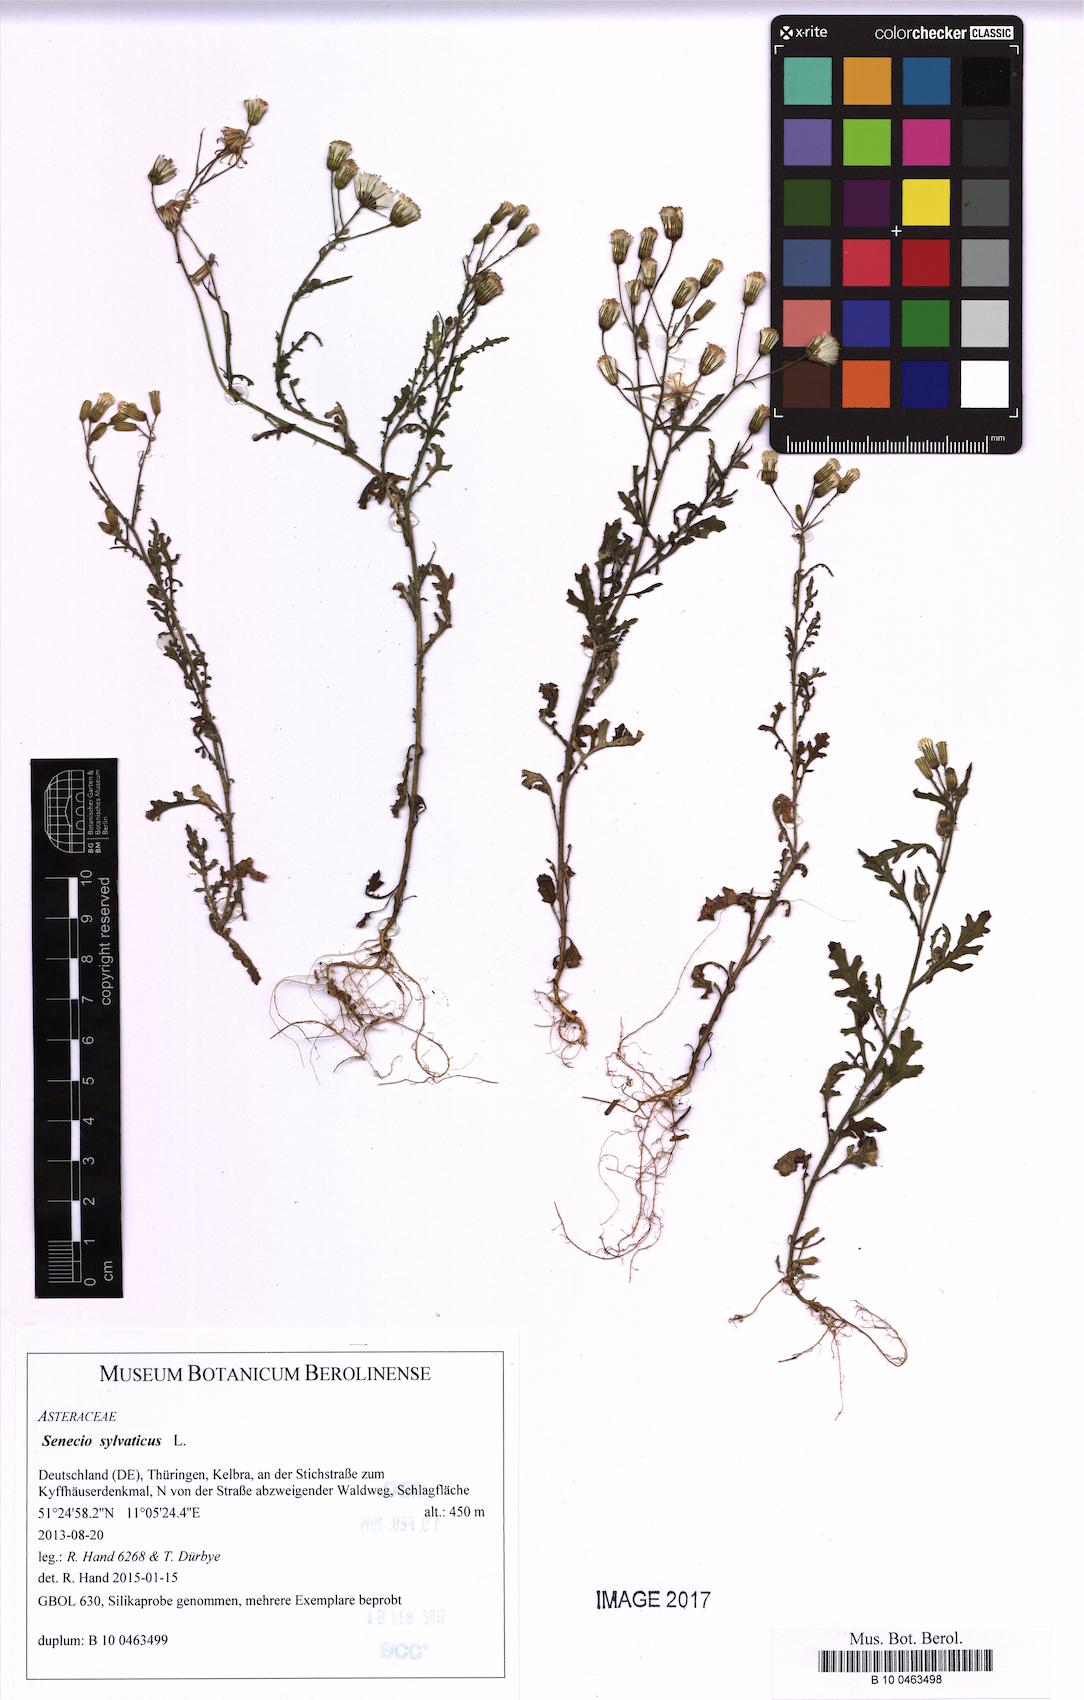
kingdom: Plantae
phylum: Tracheophyta
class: Magnoliopsida
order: Asterales
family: Asteraceae
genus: Senecio
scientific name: Senecio sylvaticus
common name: Woodland ragwort
